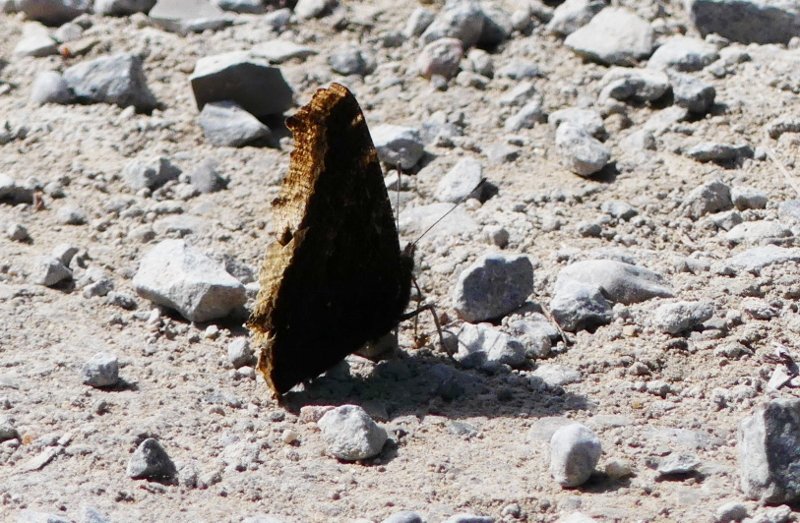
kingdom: Animalia
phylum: Arthropoda
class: Insecta
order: Lepidoptera
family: Nymphalidae
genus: Nymphalis
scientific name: Nymphalis antiopa
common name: Mourning Cloak
